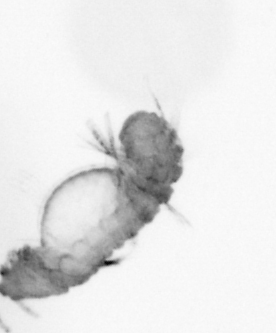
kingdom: Animalia
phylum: Annelida
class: Polychaeta
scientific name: Polychaeta
